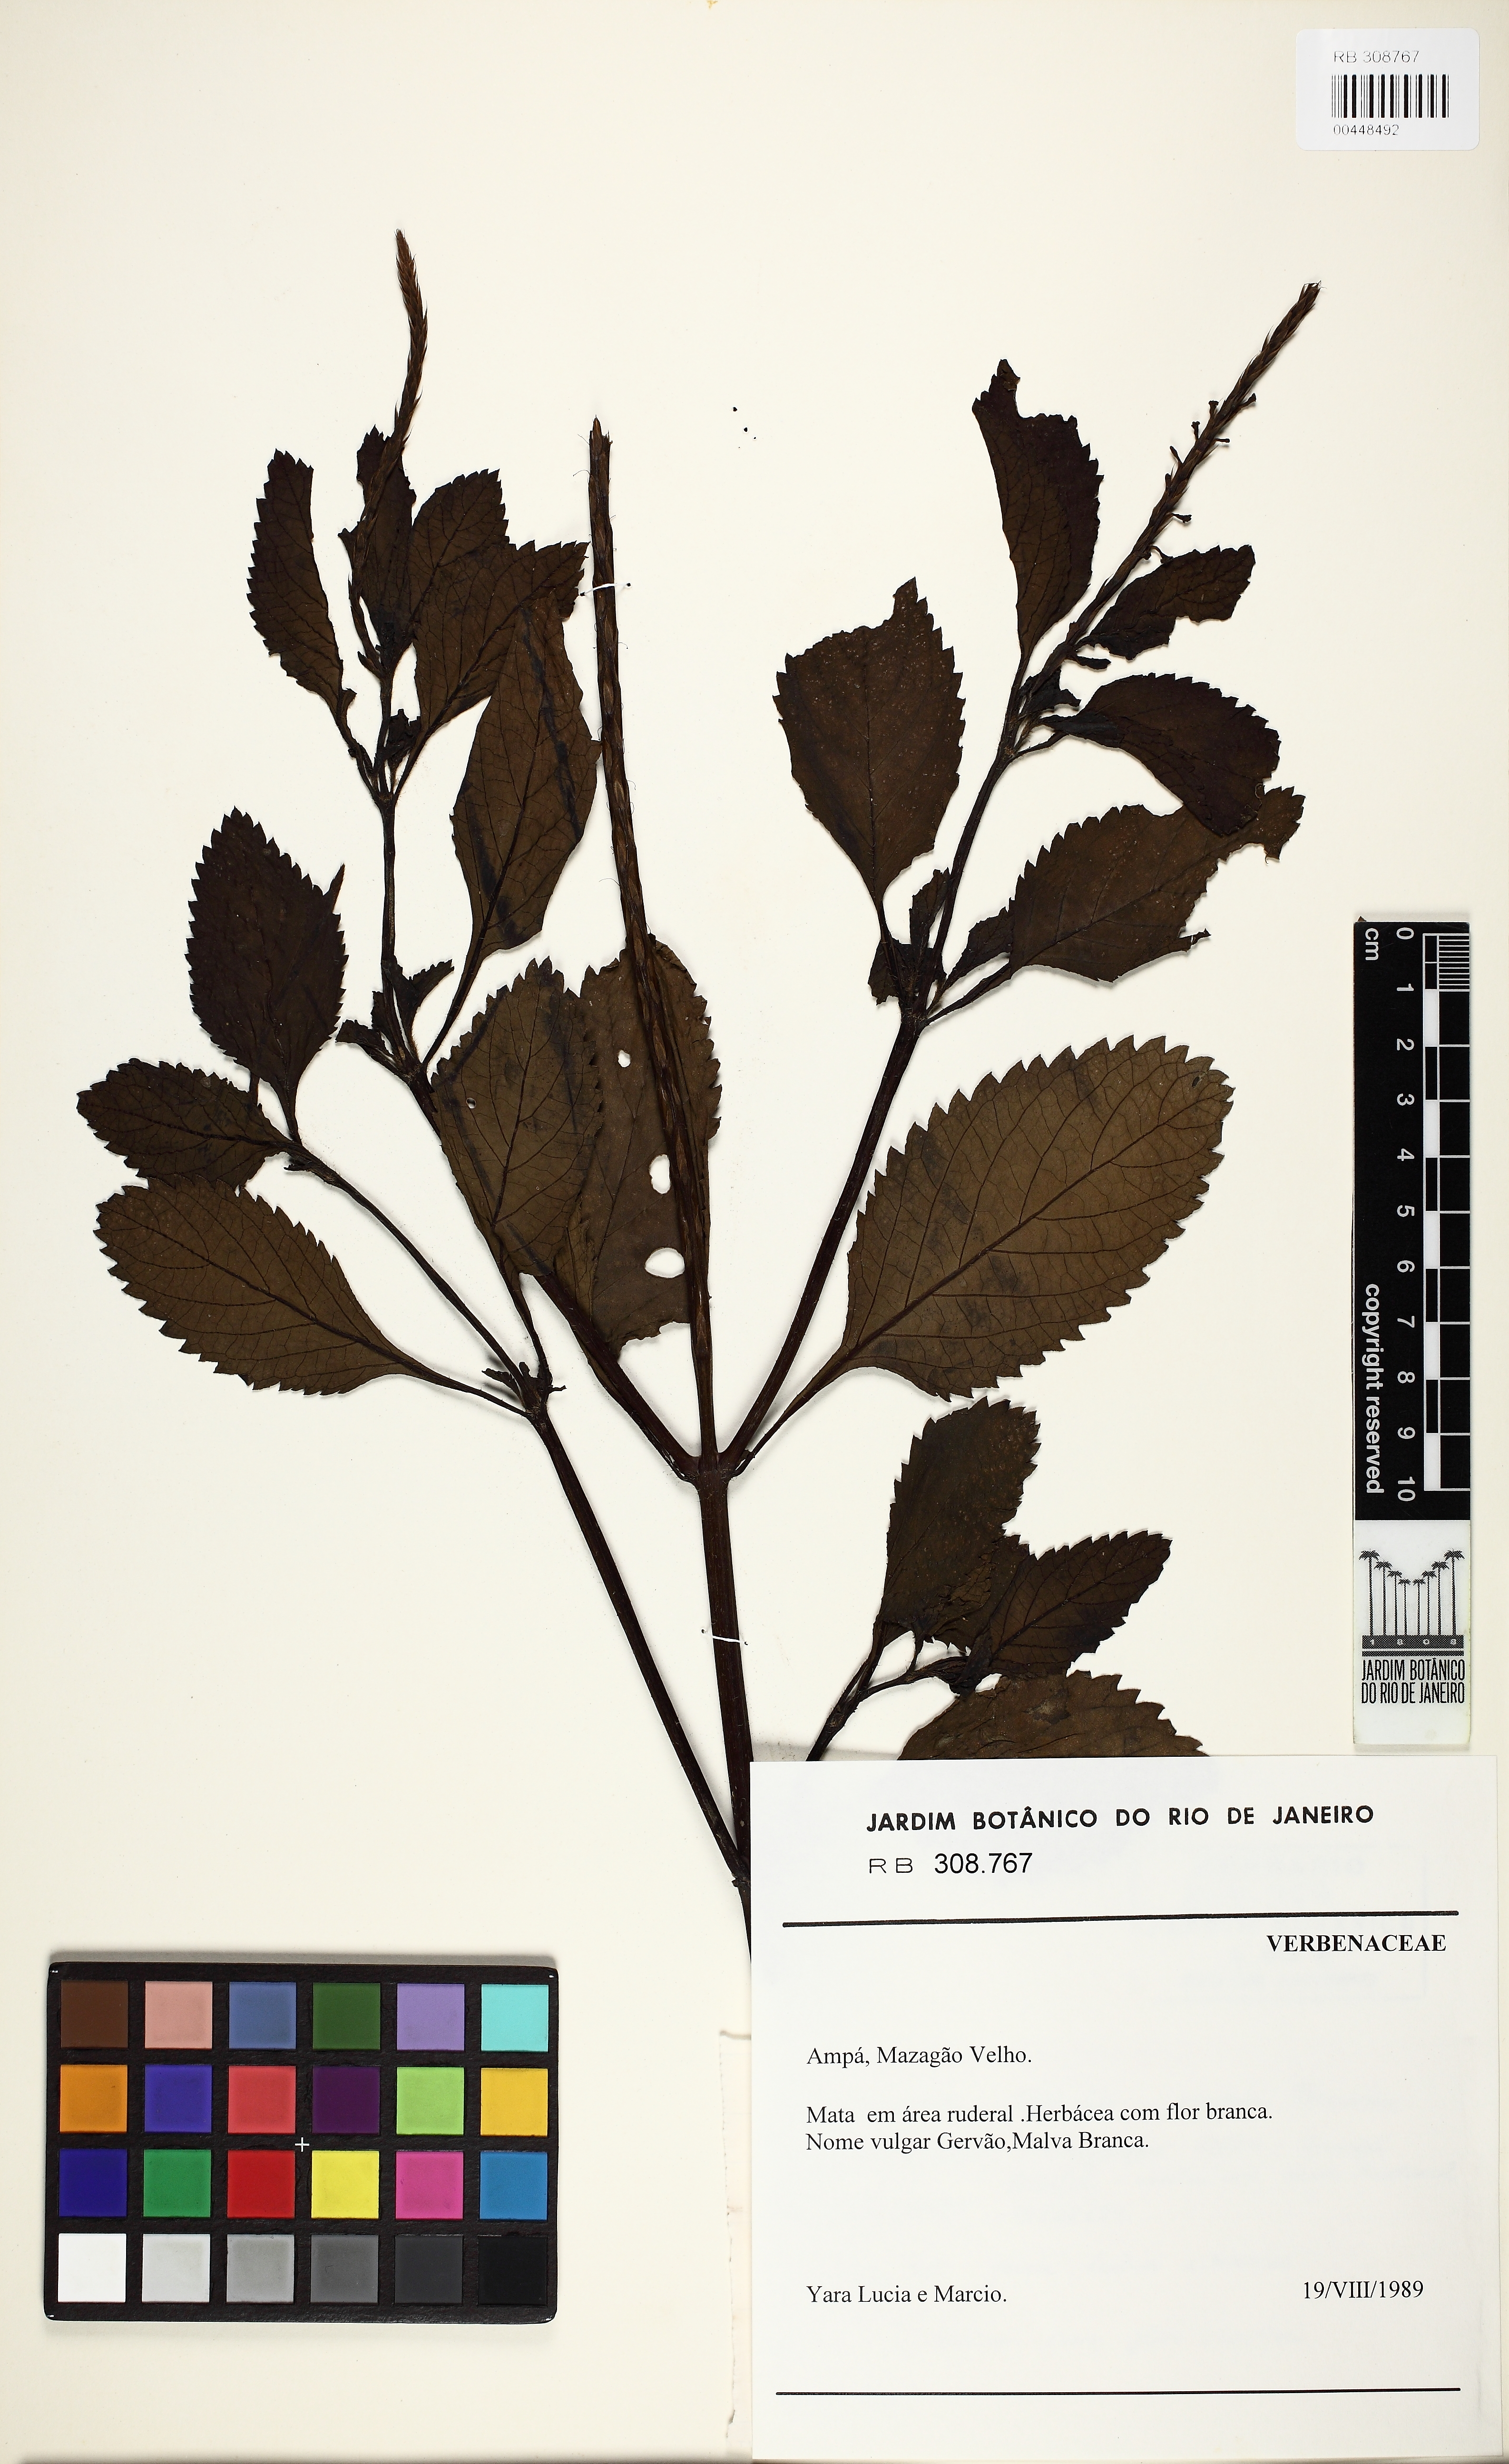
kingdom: Plantae
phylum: Tracheophyta
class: Magnoliopsida
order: Lamiales
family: Verbenaceae
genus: Stachytarpheta
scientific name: Stachytarpheta
